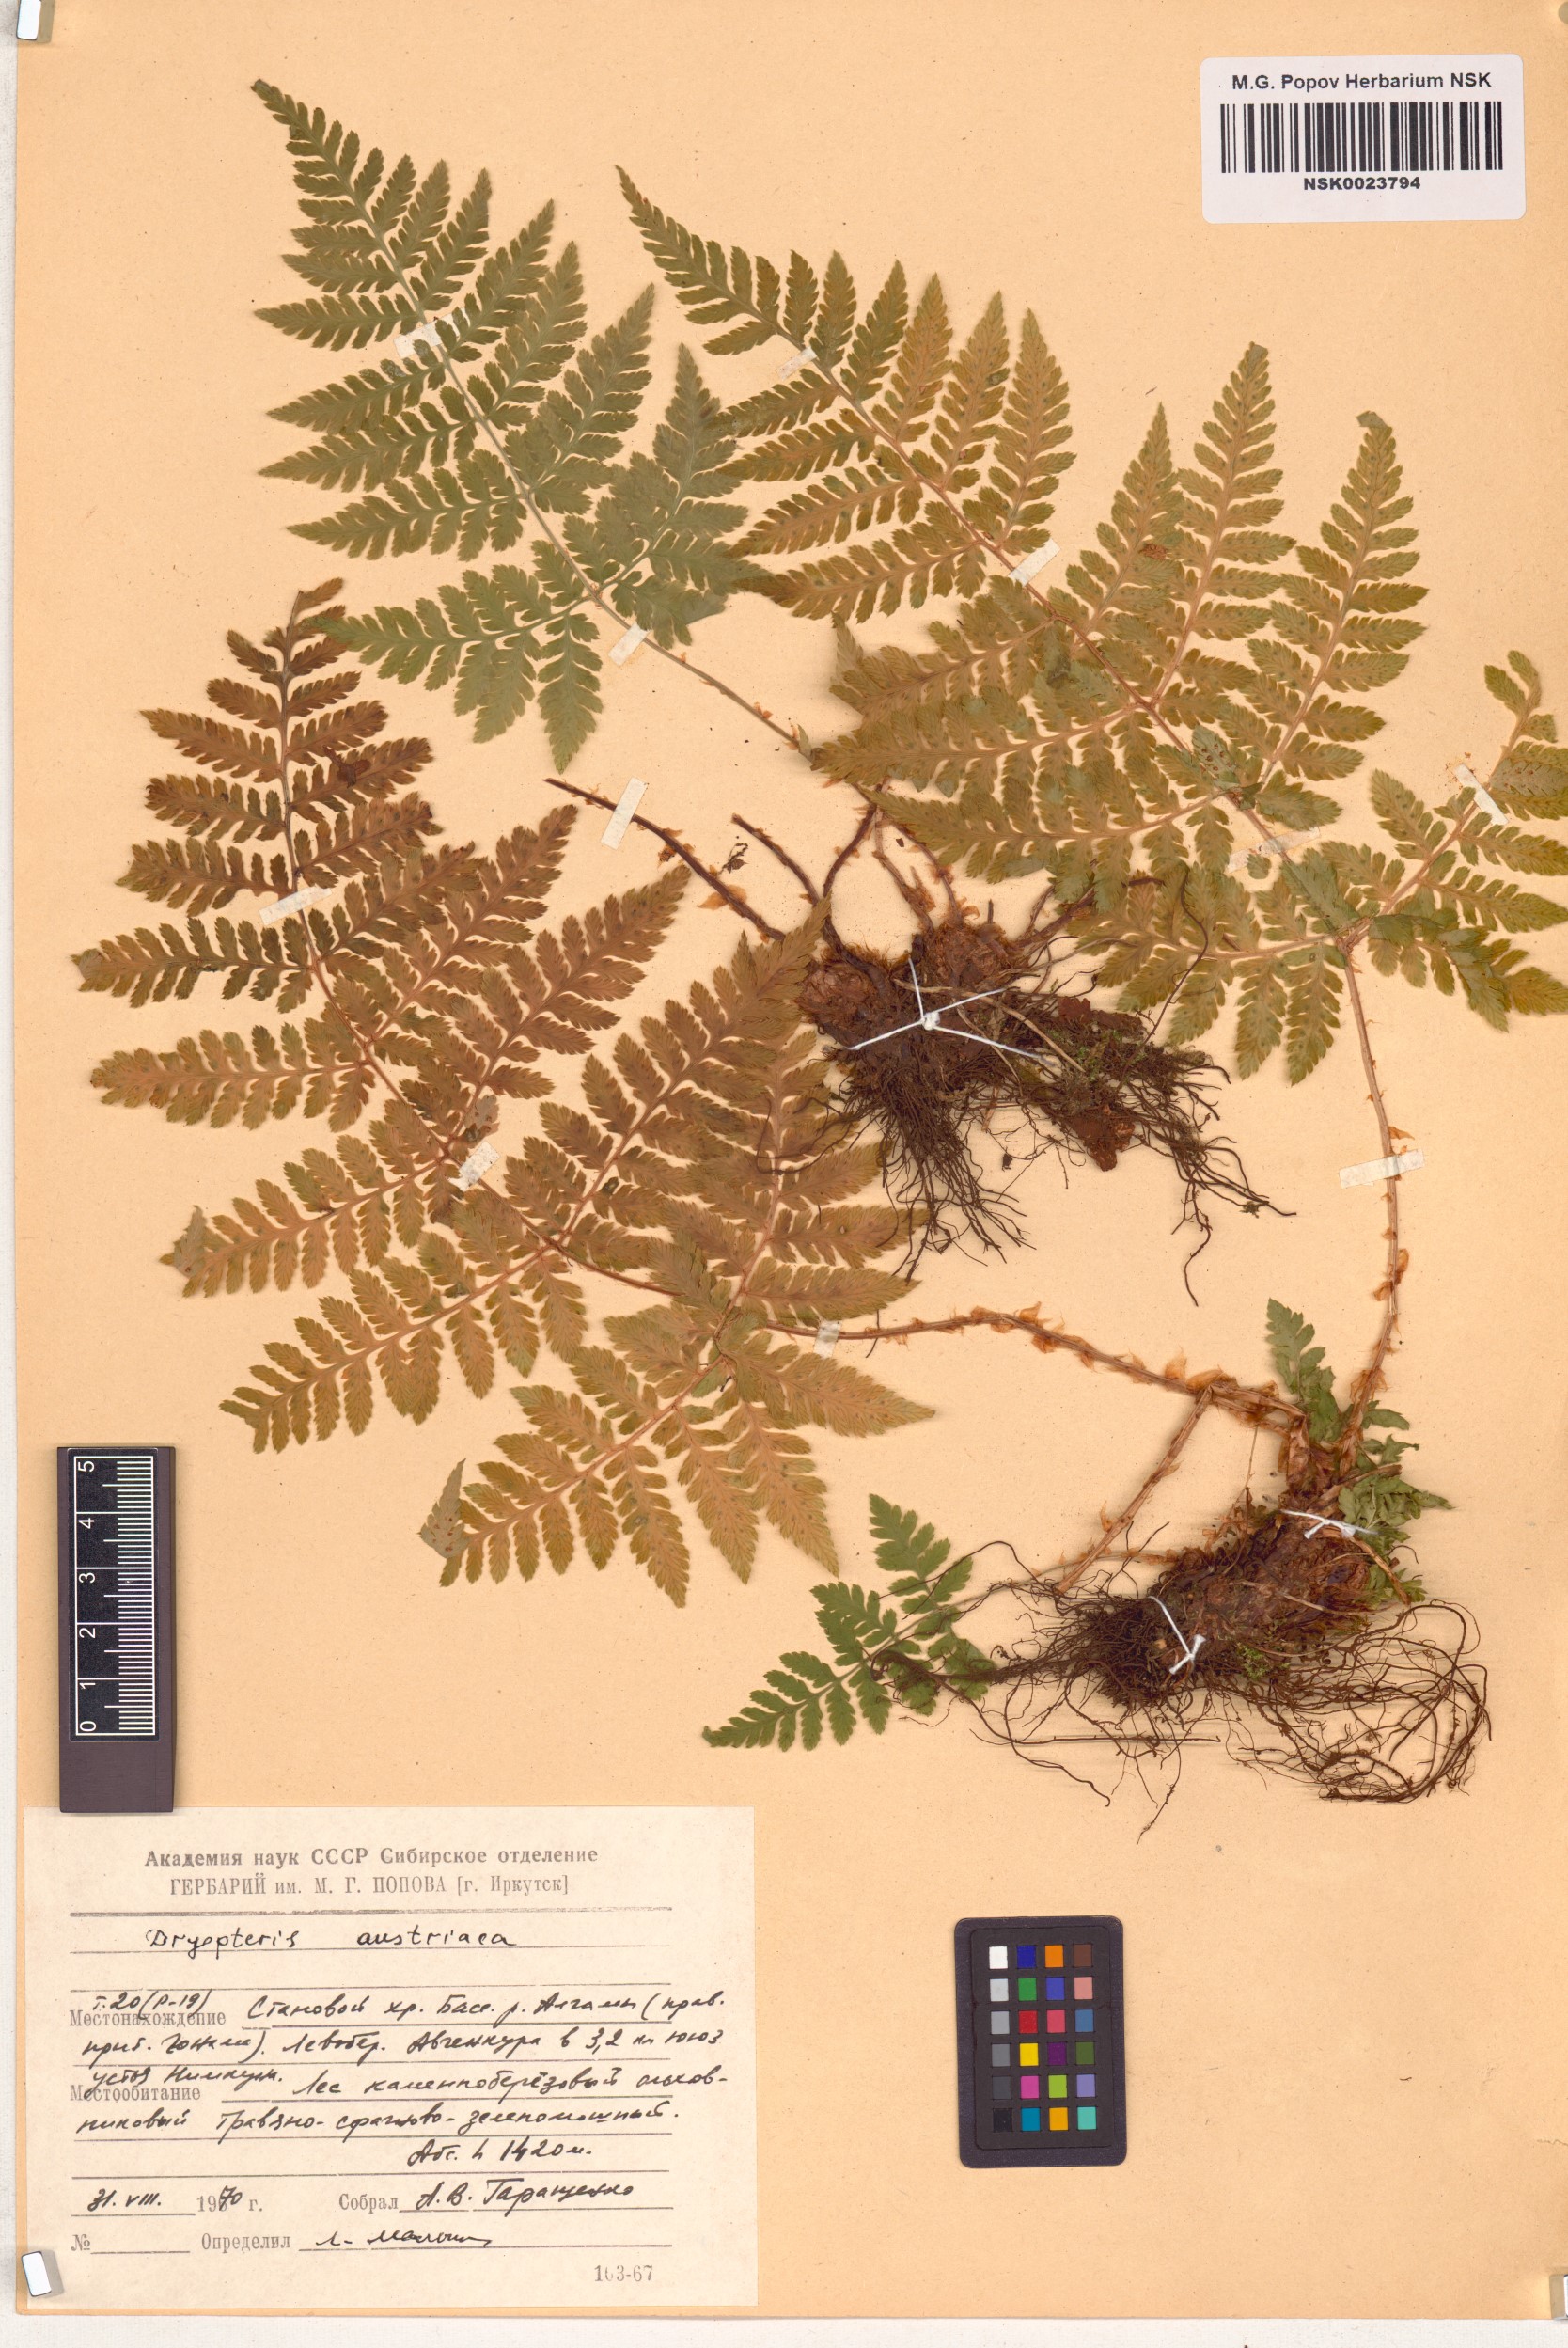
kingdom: Plantae
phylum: Tracheophyta
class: Polypodiopsida
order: Polypodiales
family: Dryopteridaceae
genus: Dryopteris
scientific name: Dryopteris dilatata
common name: Broad buckler-fern
